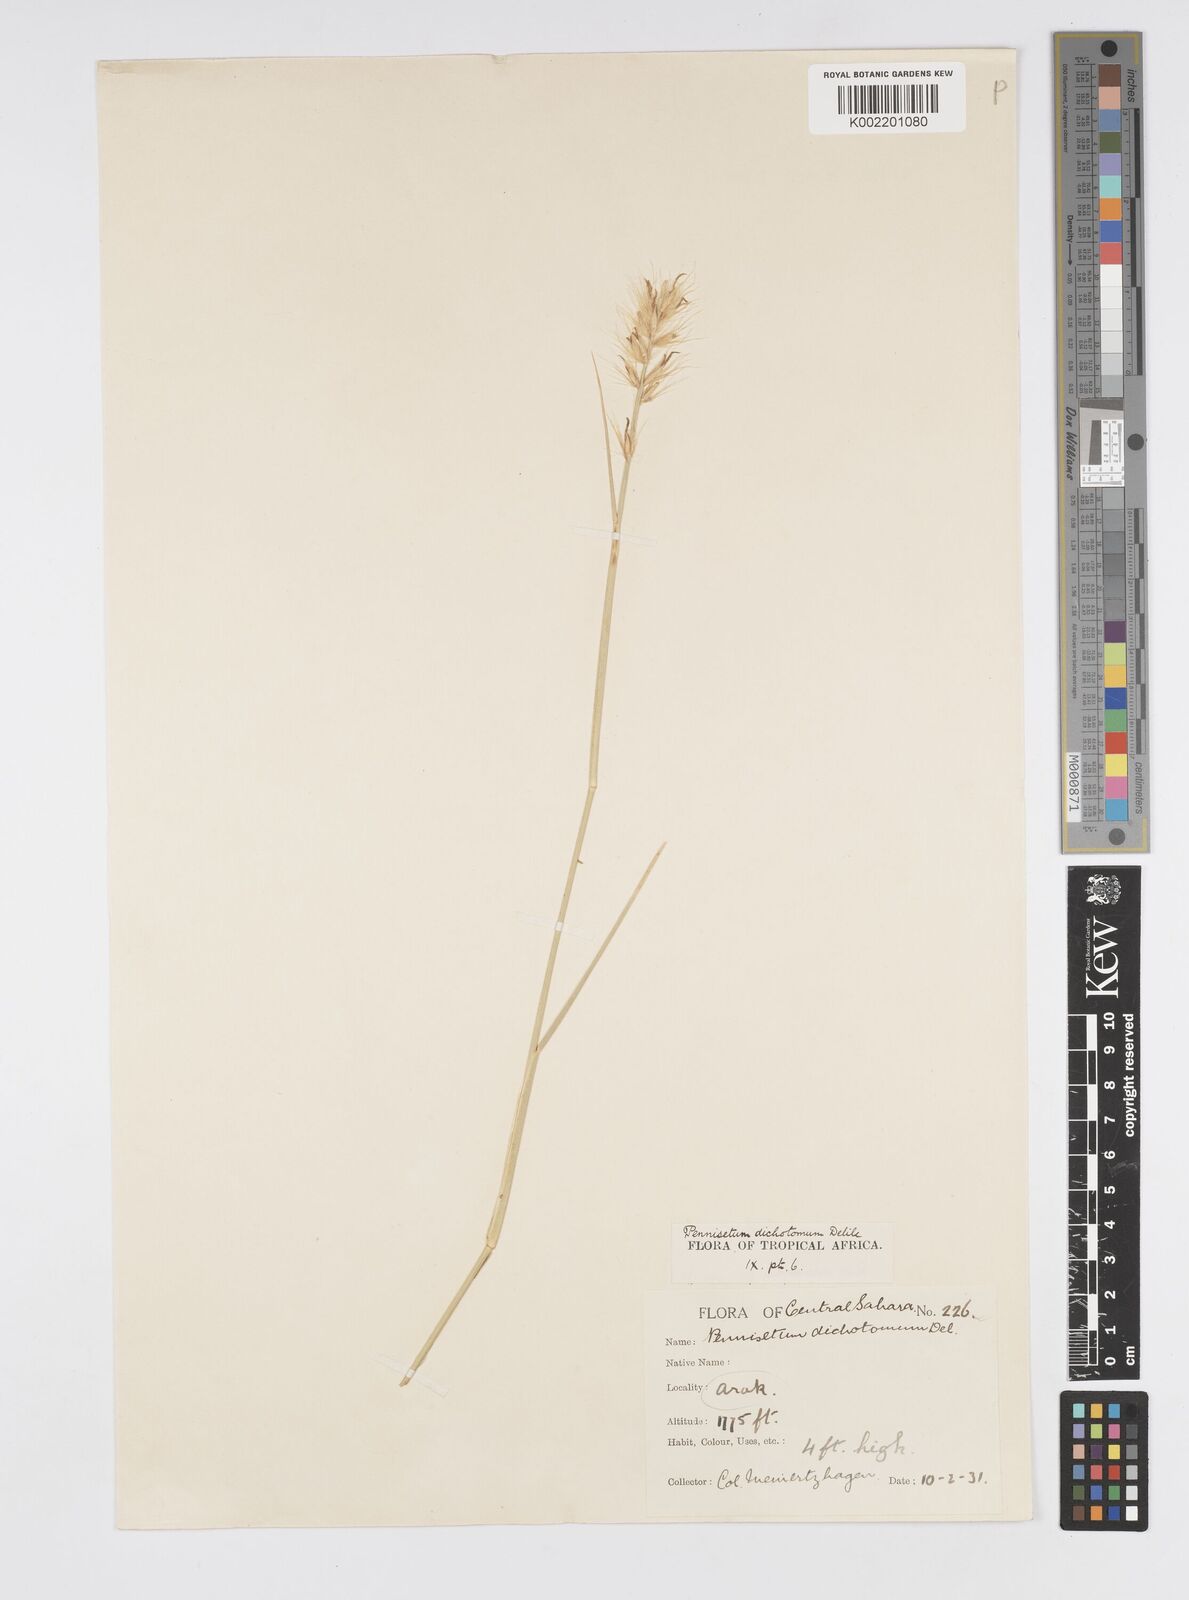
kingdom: Plantae
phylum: Tracheophyta
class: Liliopsida
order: Poales
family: Poaceae
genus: Cenchrus
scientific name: Cenchrus divisus
